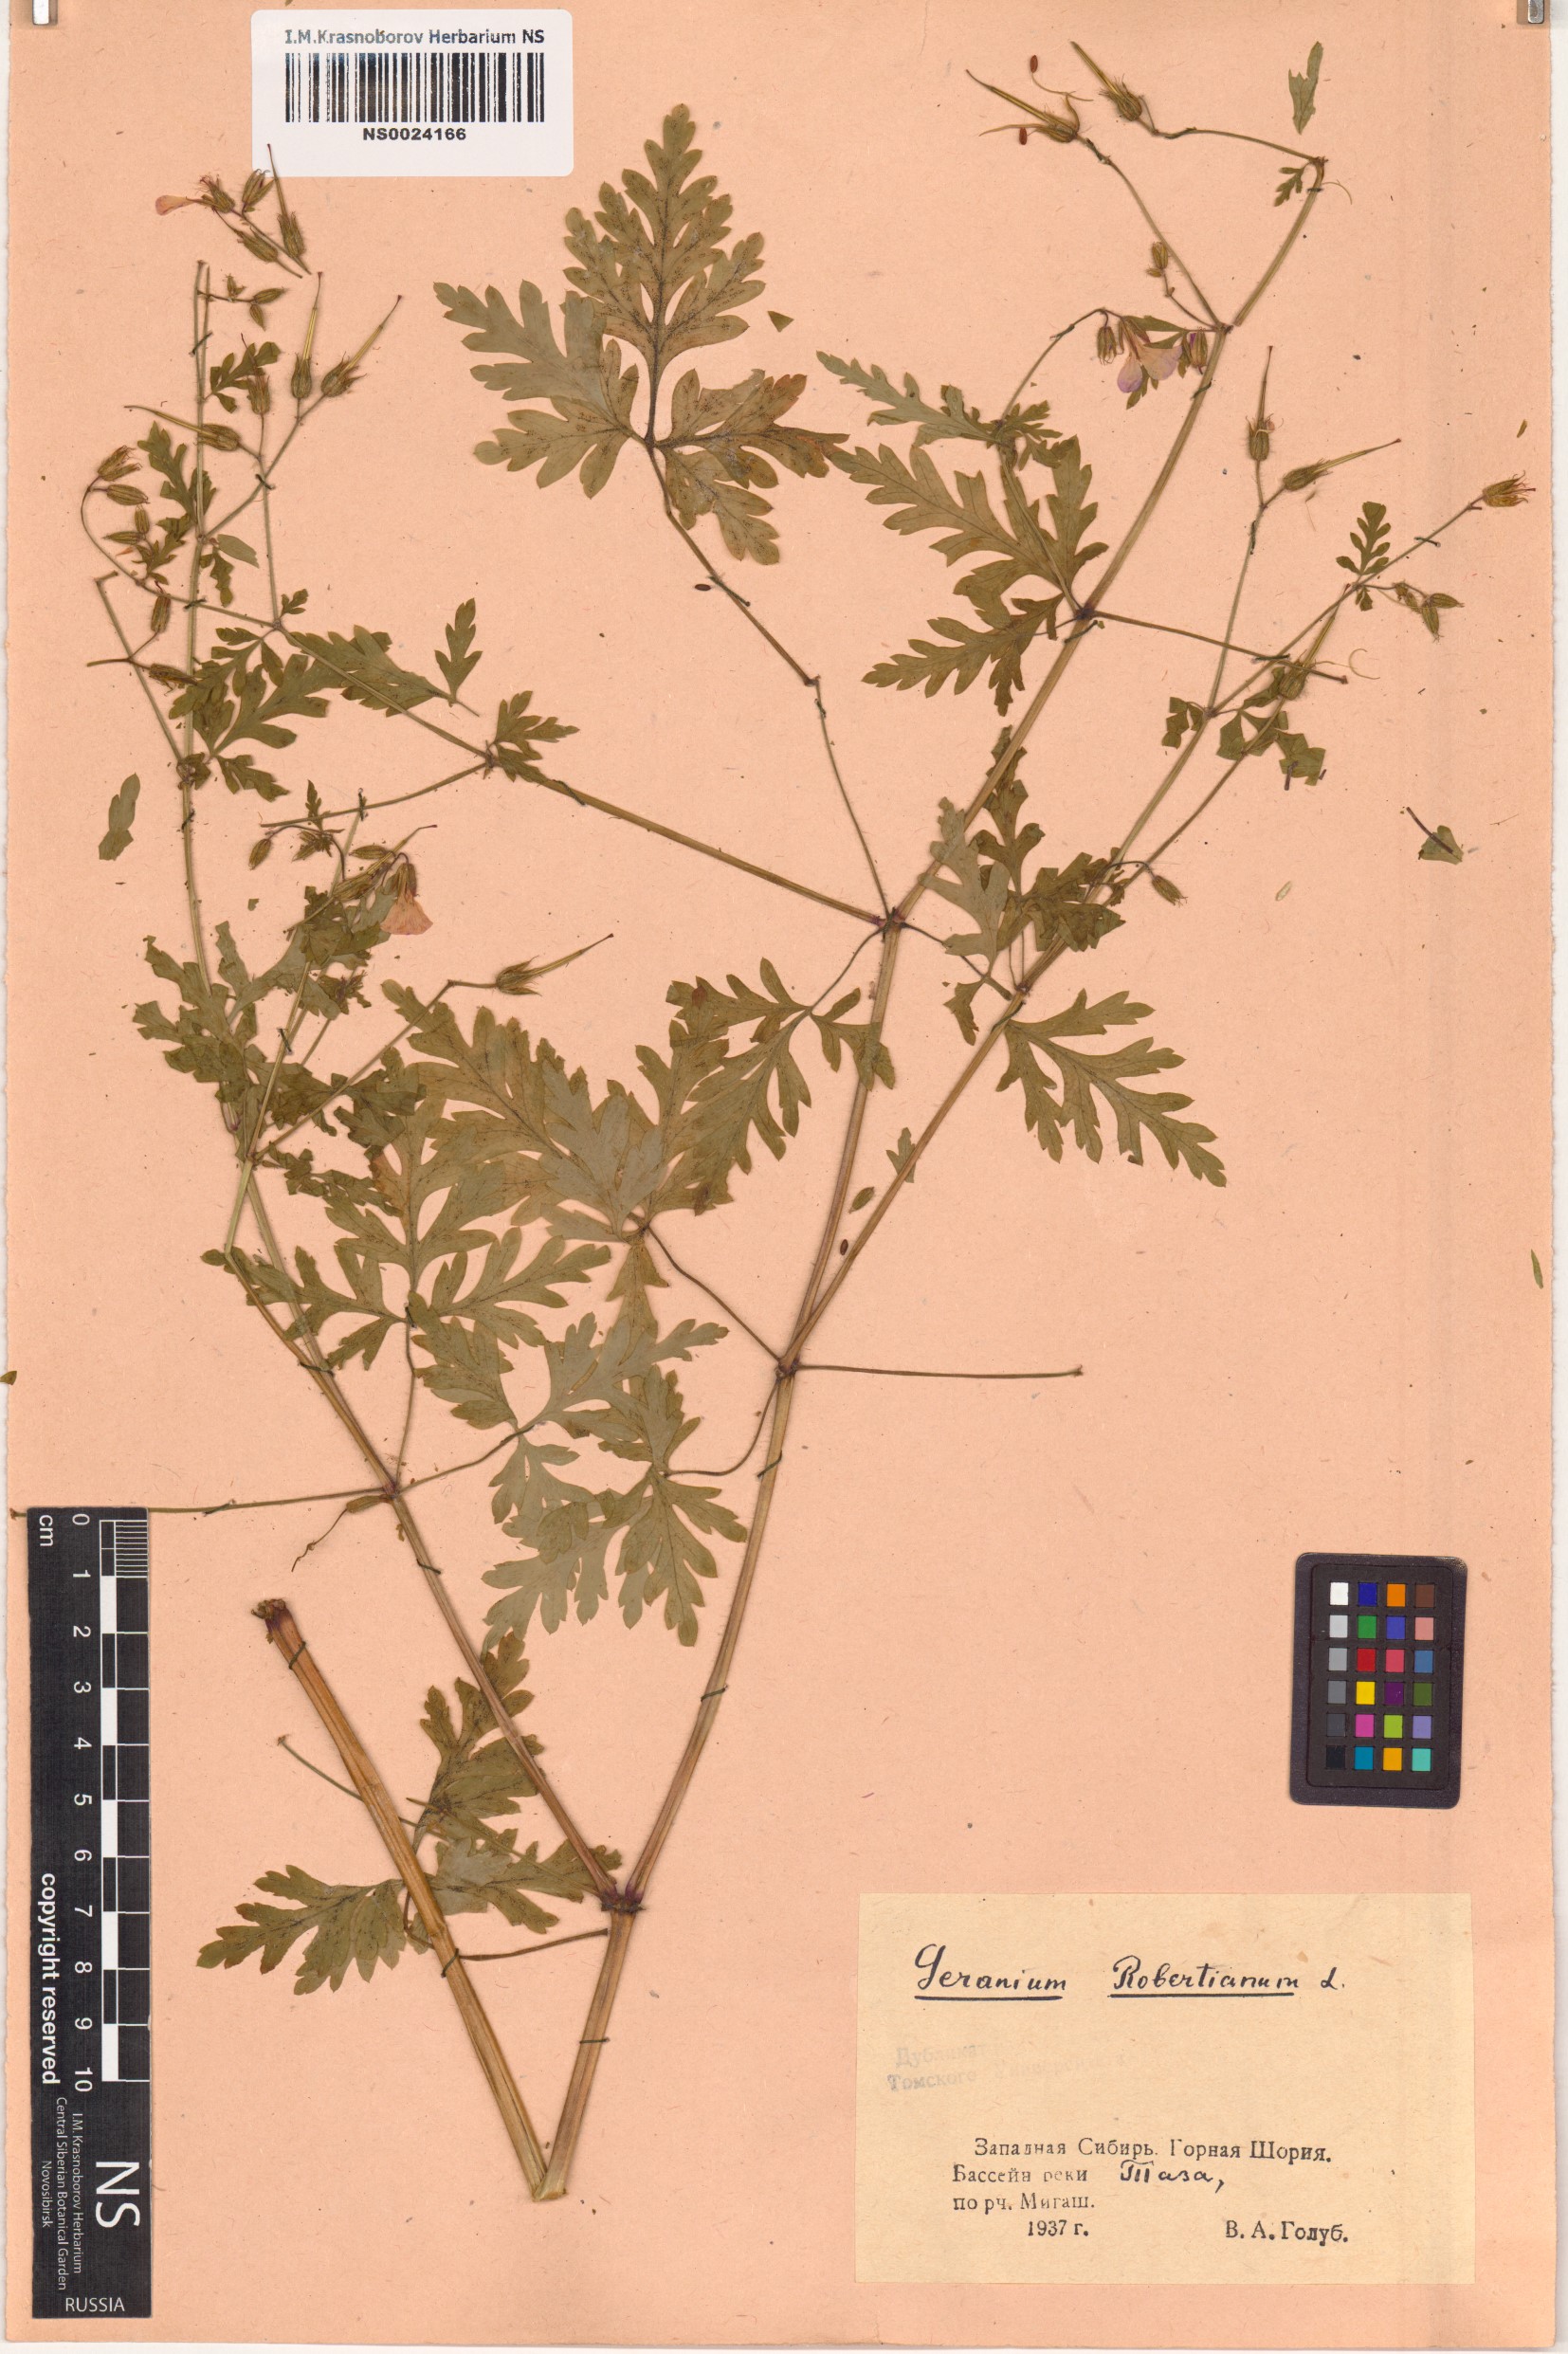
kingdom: Plantae
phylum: Tracheophyta
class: Magnoliopsida
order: Geraniales
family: Geraniaceae
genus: Geranium
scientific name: Geranium robertianum
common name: Herb-robert
